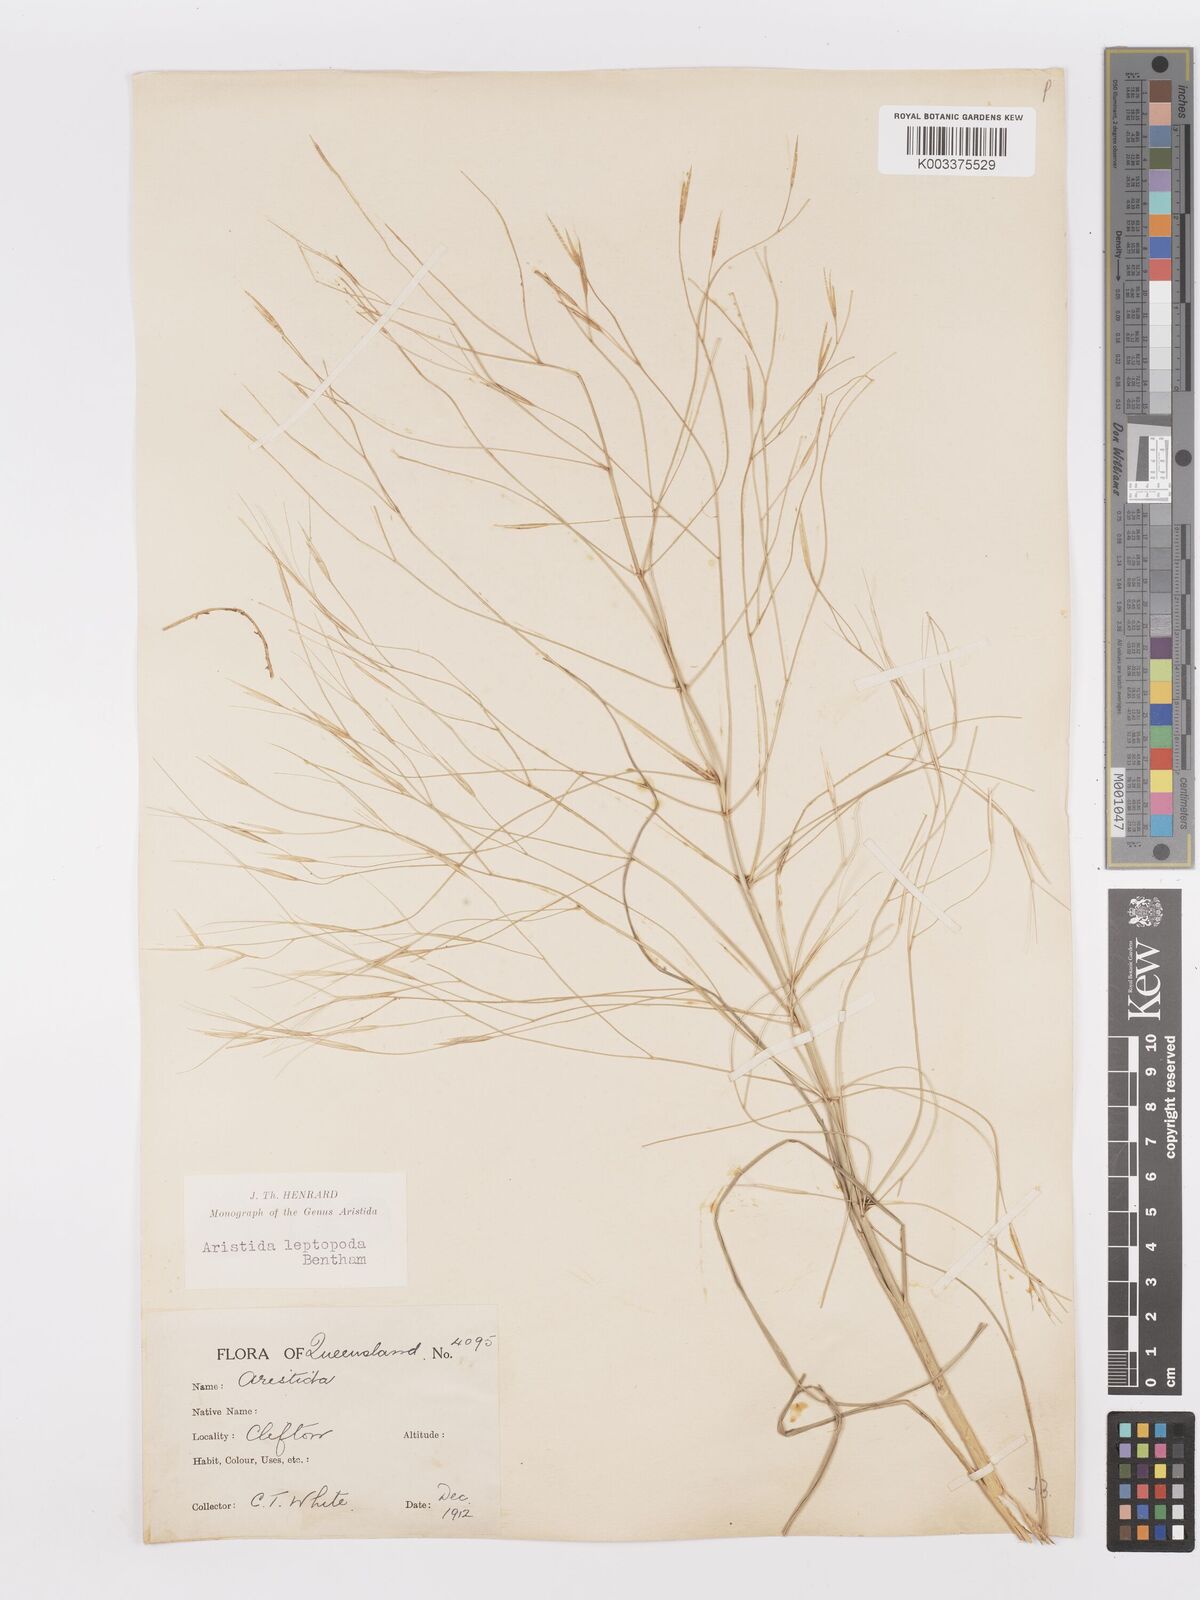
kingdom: Plantae
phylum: Tracheophyta
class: Liliopsida
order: Poales
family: Poaceae
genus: Aristida
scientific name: Aristida leptopoda
